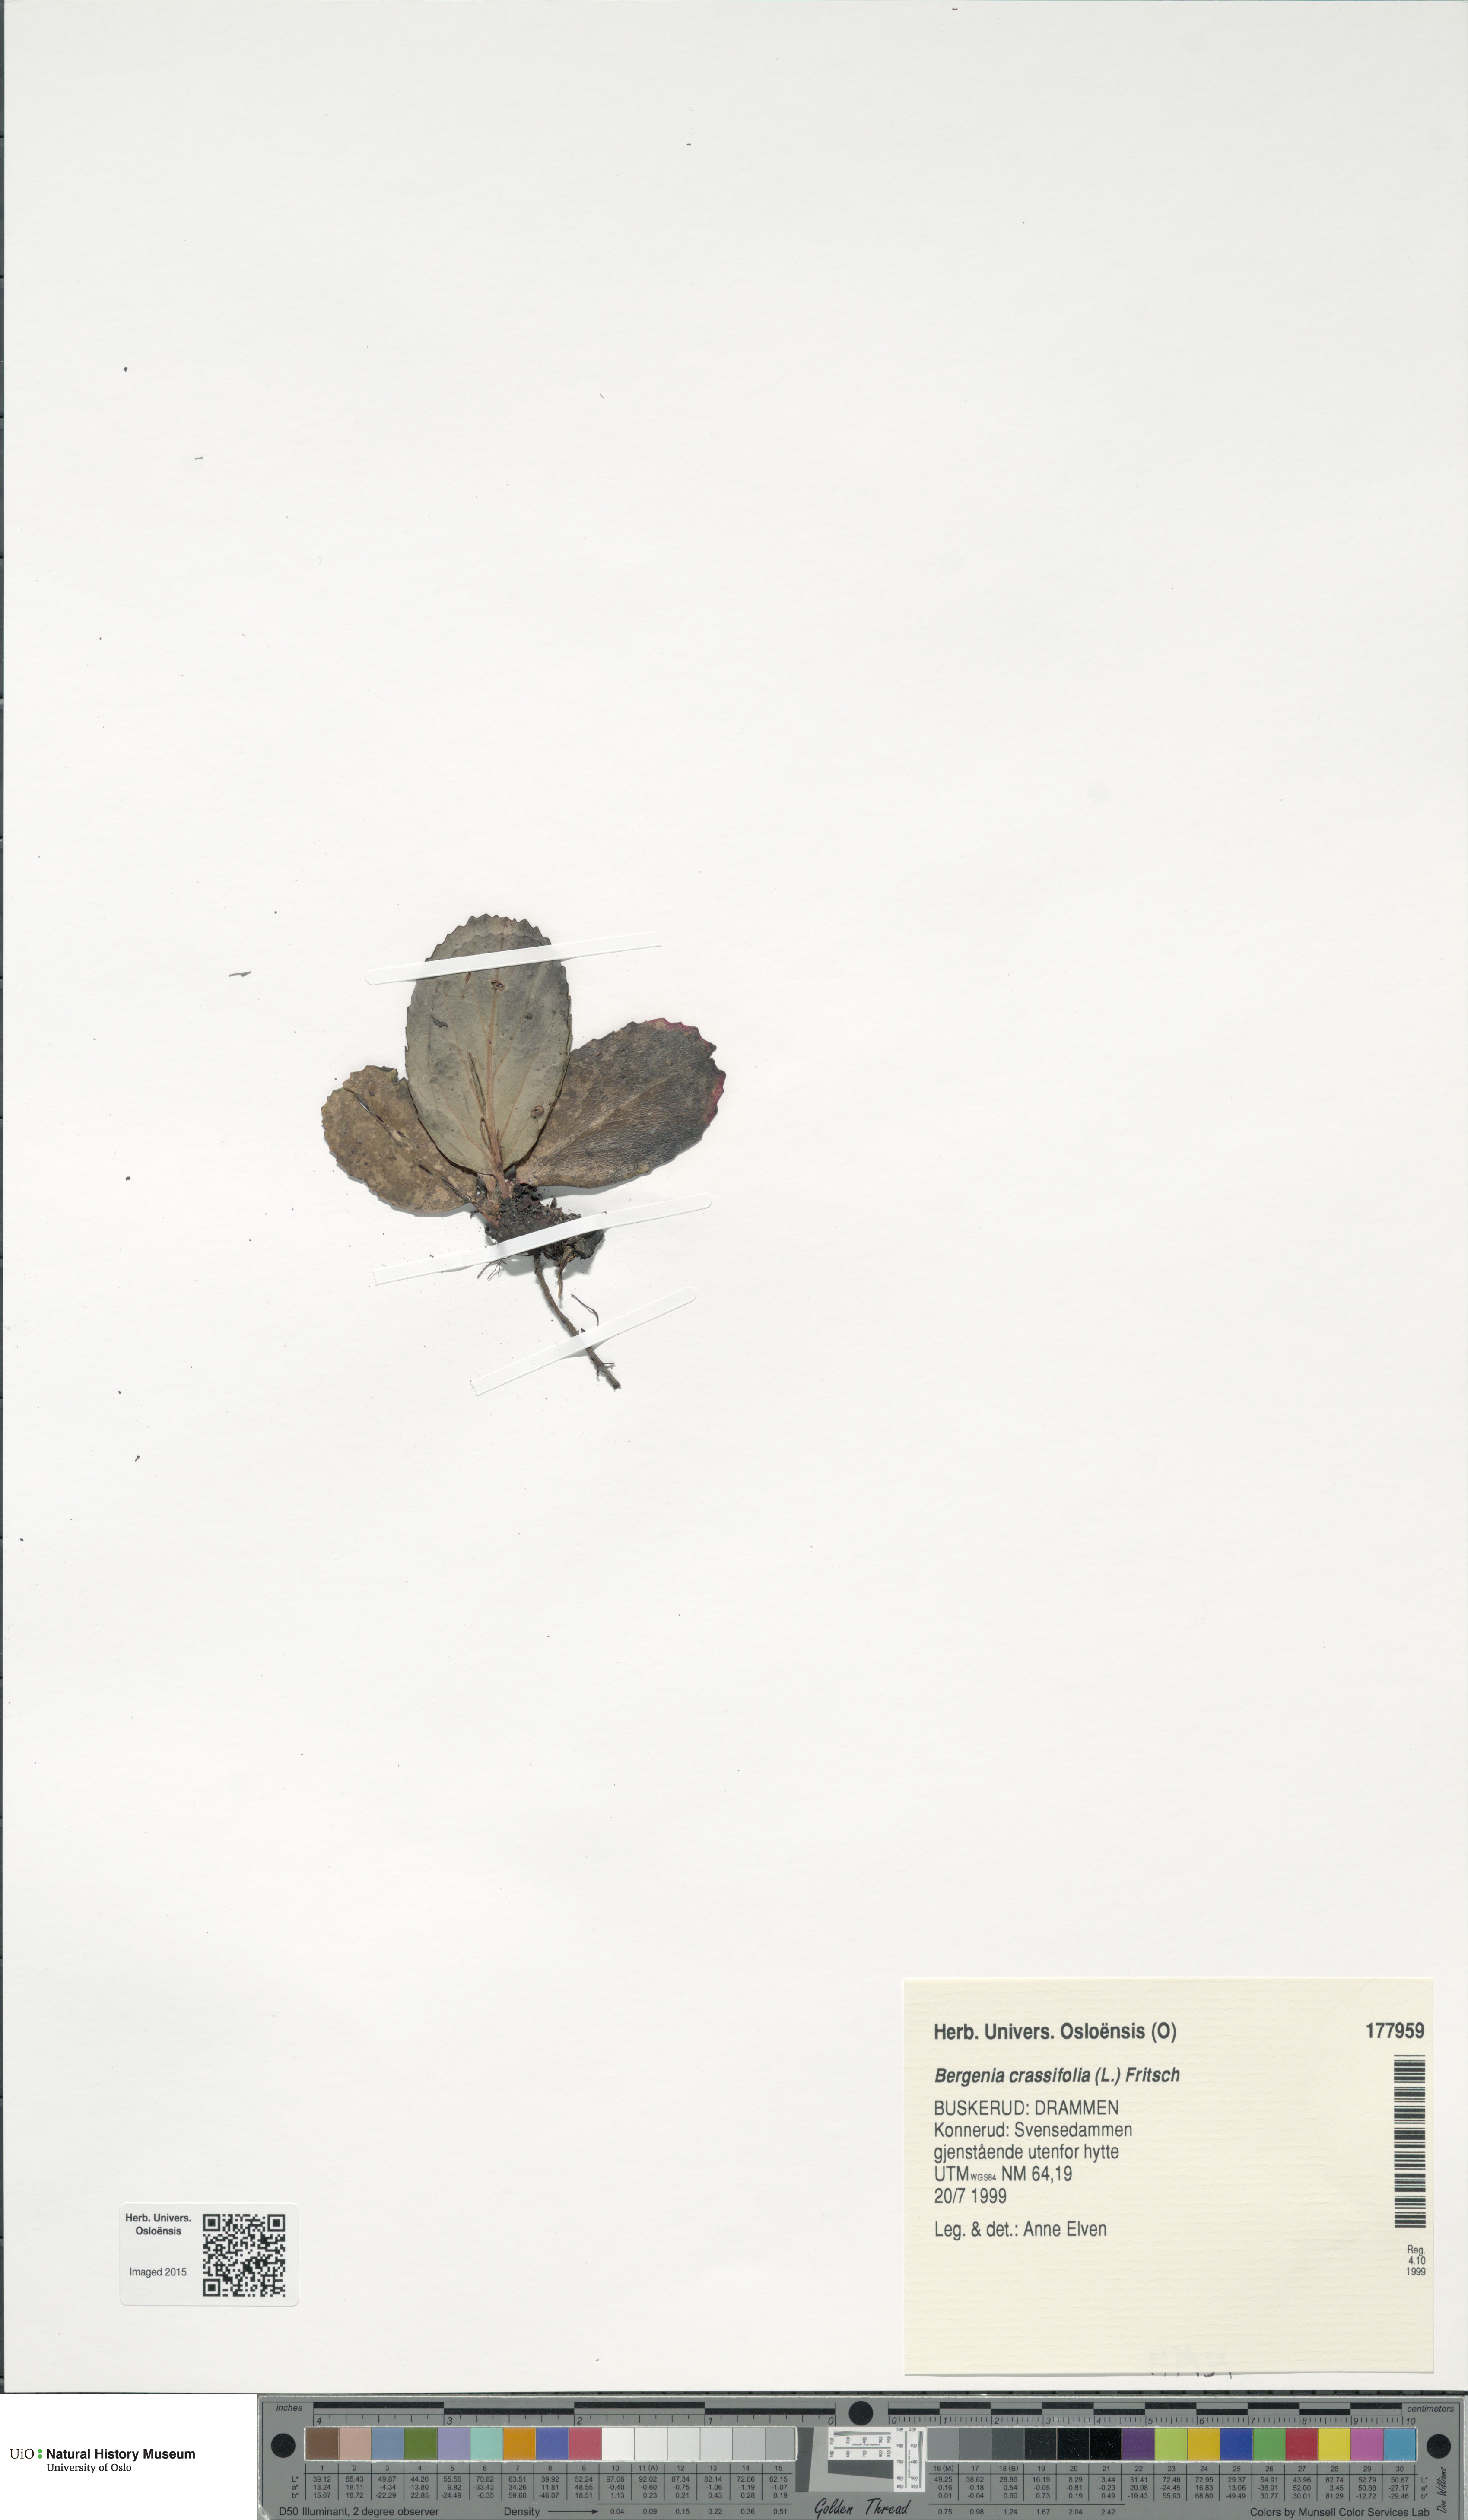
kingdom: Plantae
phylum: Tracheophyta
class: Magnoliopsida
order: Saxifragales
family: Saxifragaceae
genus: Bergenia
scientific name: Bergenia crassifolia
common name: Elephant-ears
